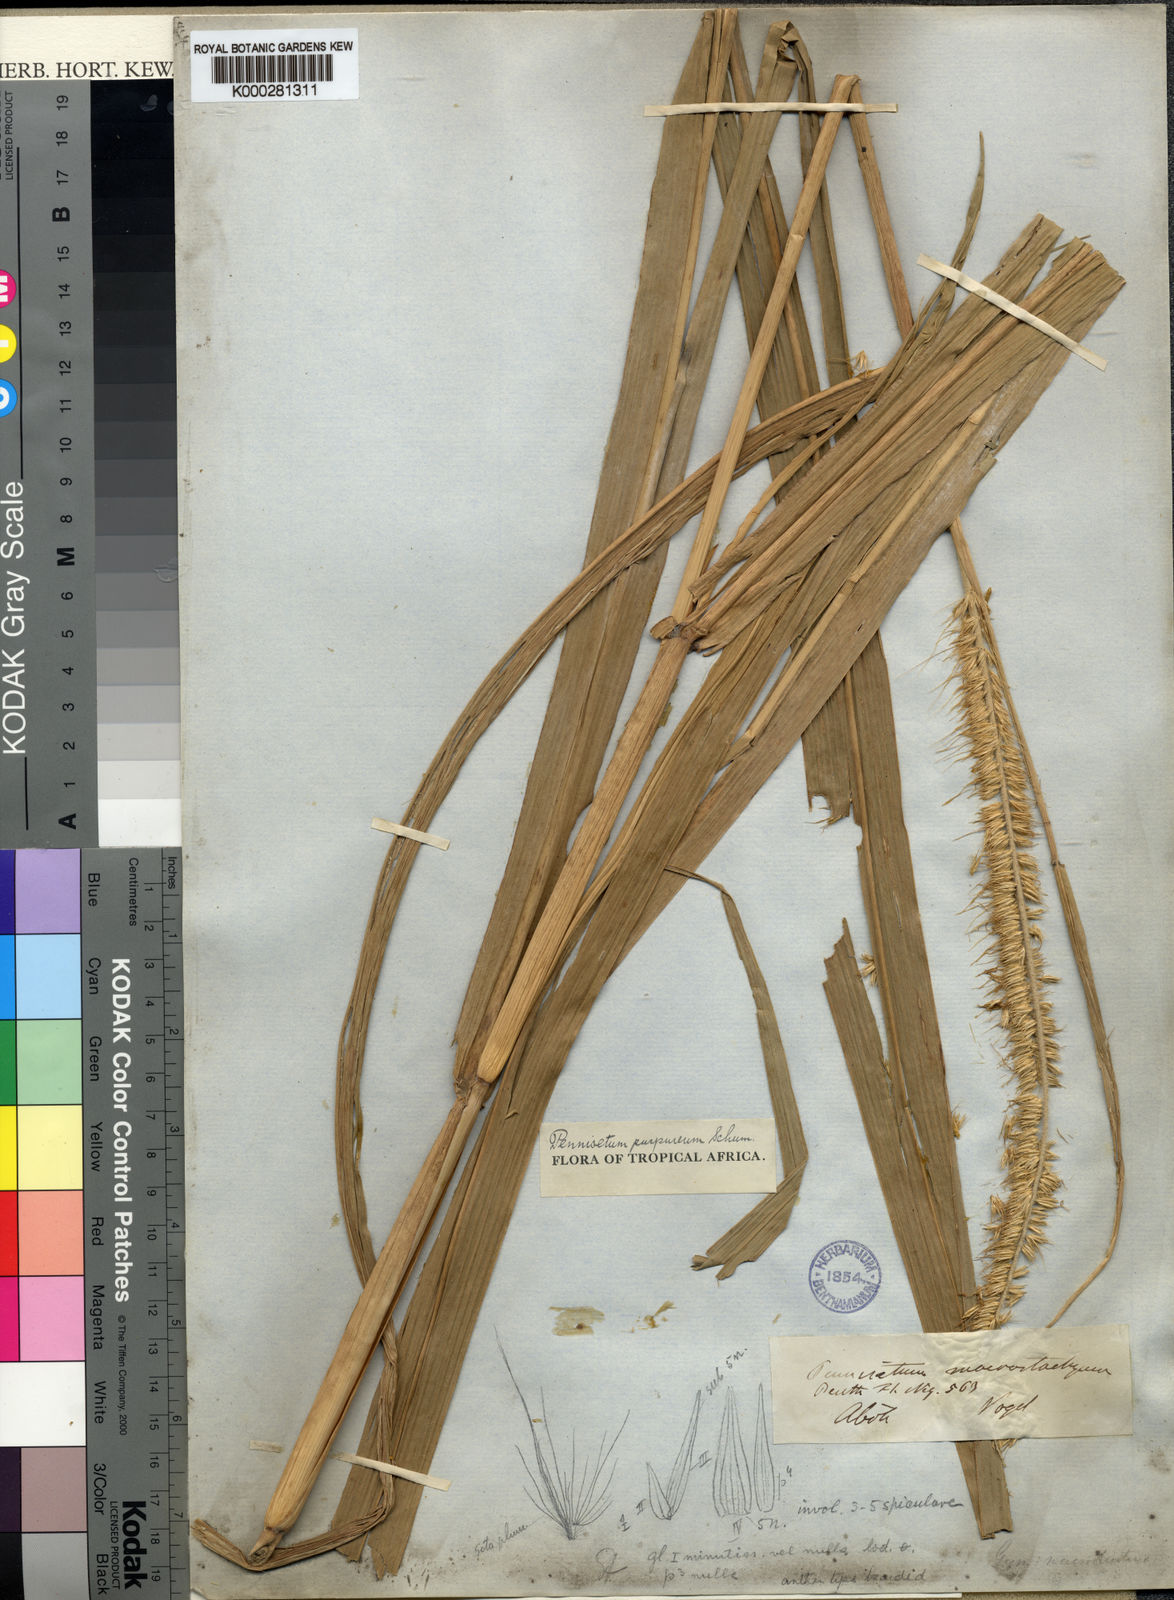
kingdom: Plantae
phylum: Tracheophyta
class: Liliopsida
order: Poales
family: Poaceae
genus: Cenchrus
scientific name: Cenchrus purpureus
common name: Elephant grass
